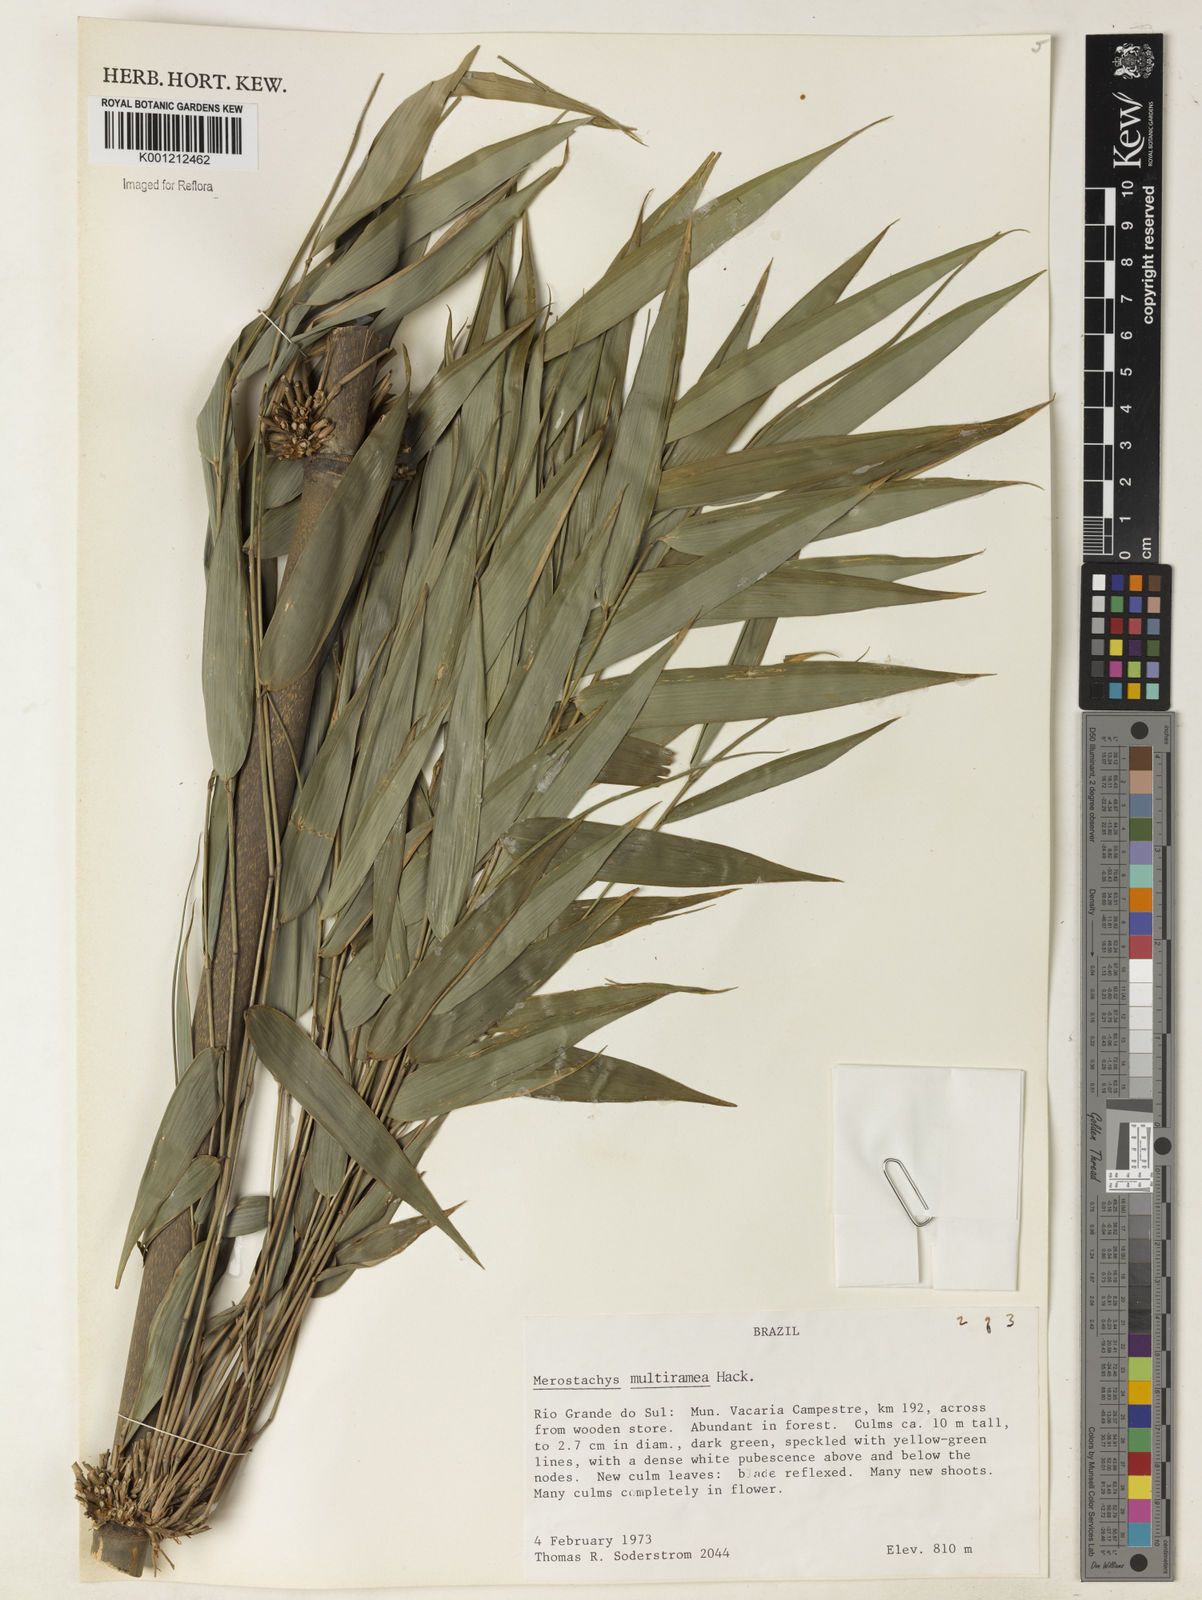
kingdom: Plantae
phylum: Tracheophyta
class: Liliopsida
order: Poales
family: Poaceae
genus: Merostachys
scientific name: Merostachys multiramea
